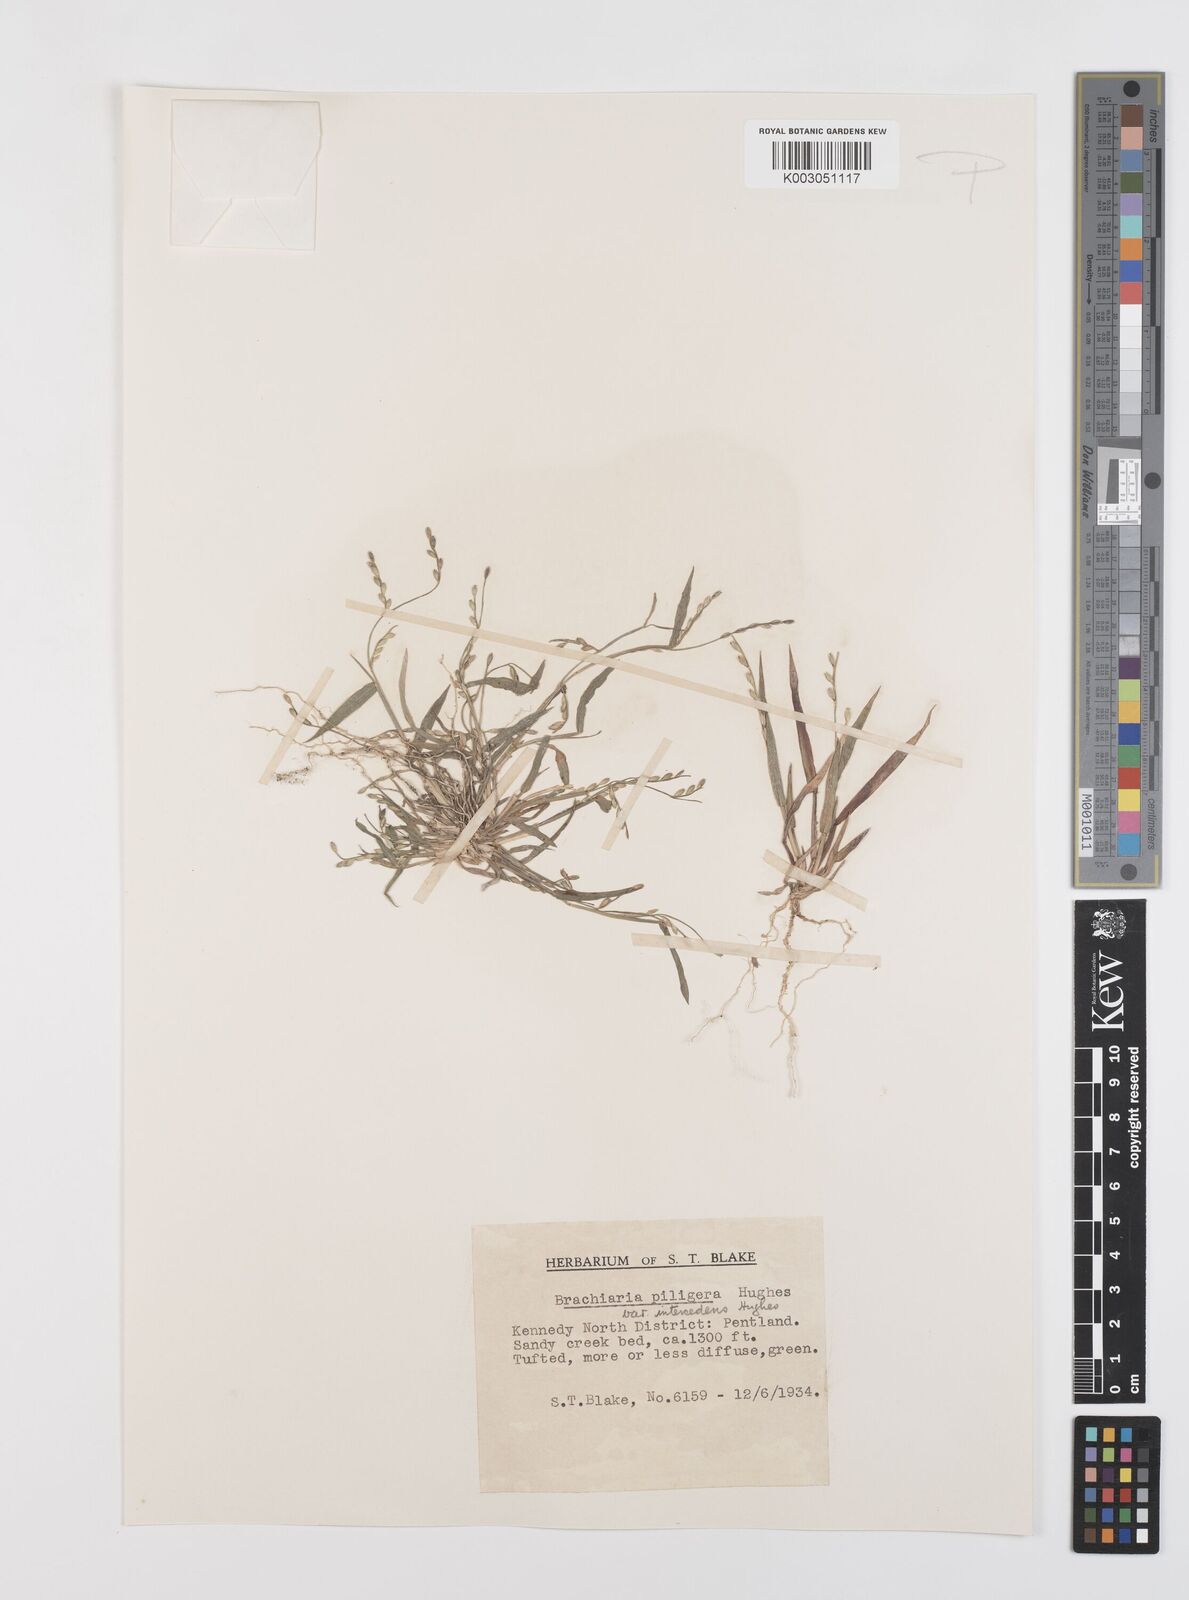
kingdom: Plantae
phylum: Tracheophyta
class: Liliopsida
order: Poales
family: Poaceae
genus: Urochloa
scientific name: Urochloa piligera
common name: Wattle signalgrass
